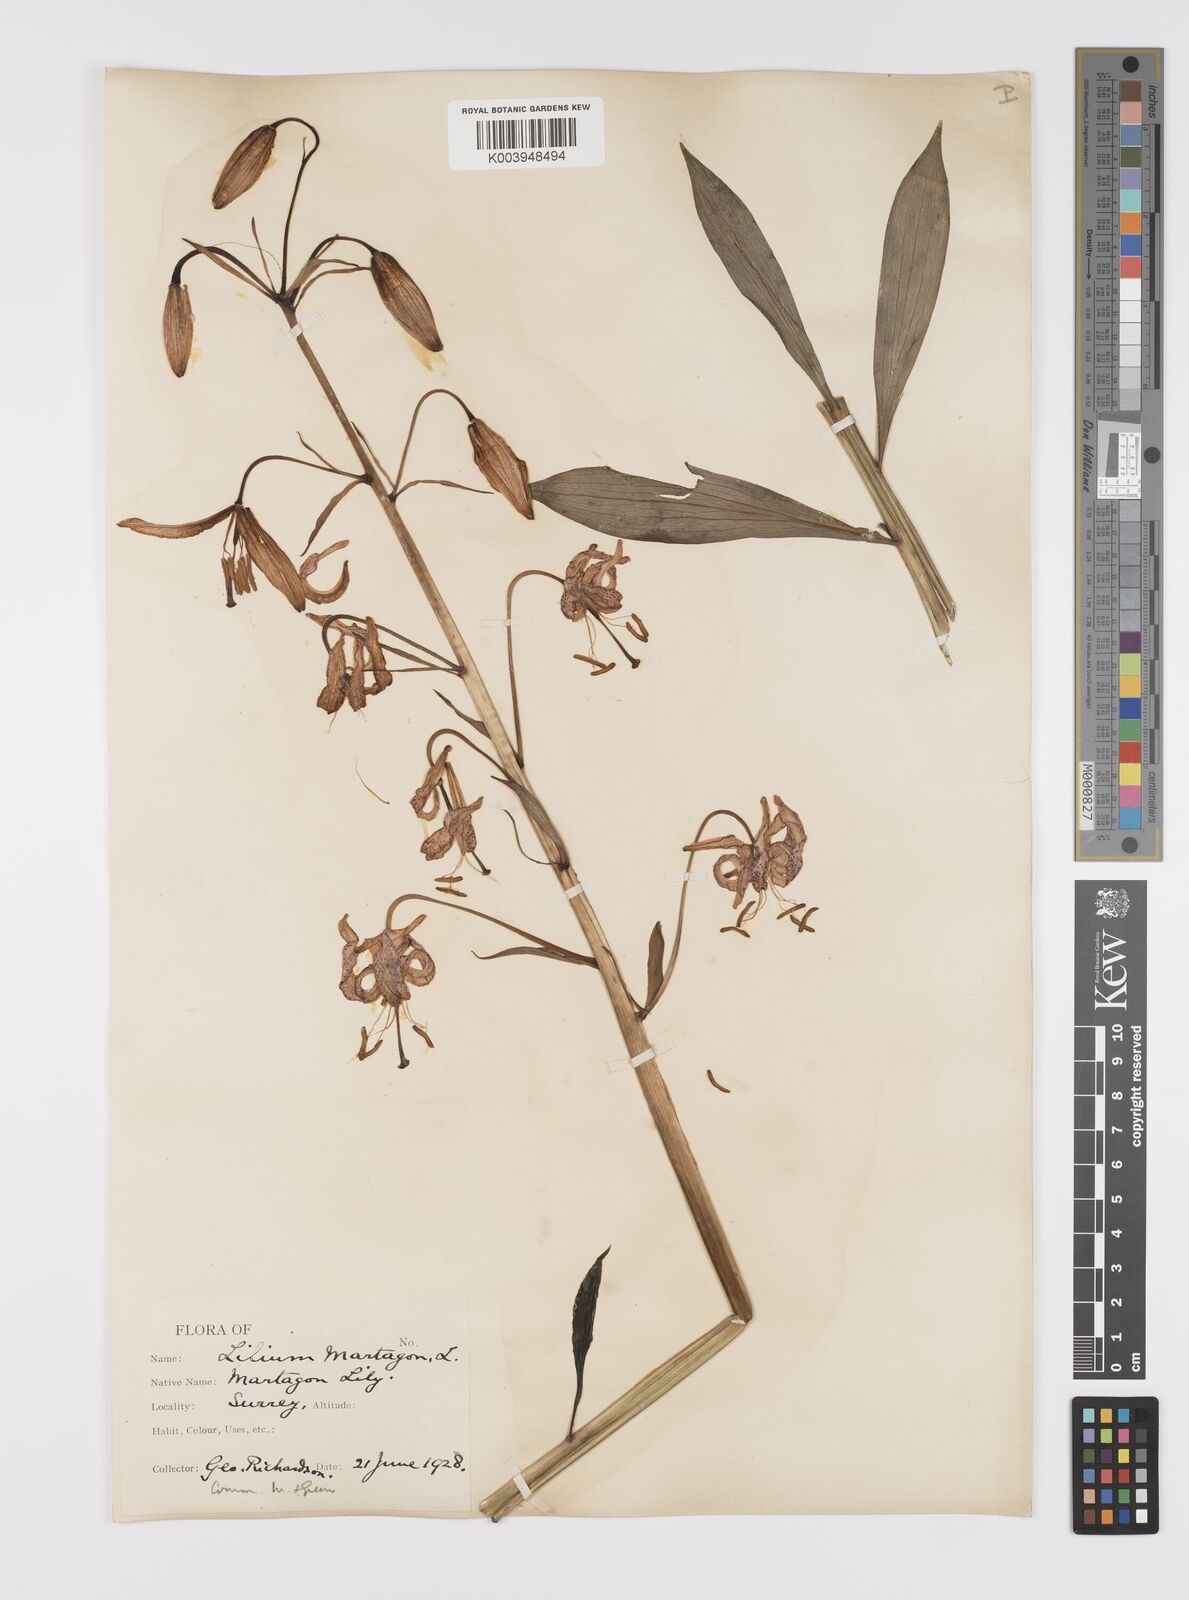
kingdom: Plantae
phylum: Tracheophyta
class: Liliopsida
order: Liliales
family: Liliaceae
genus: Lilium
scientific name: Lilium martagon
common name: Martagon lily
